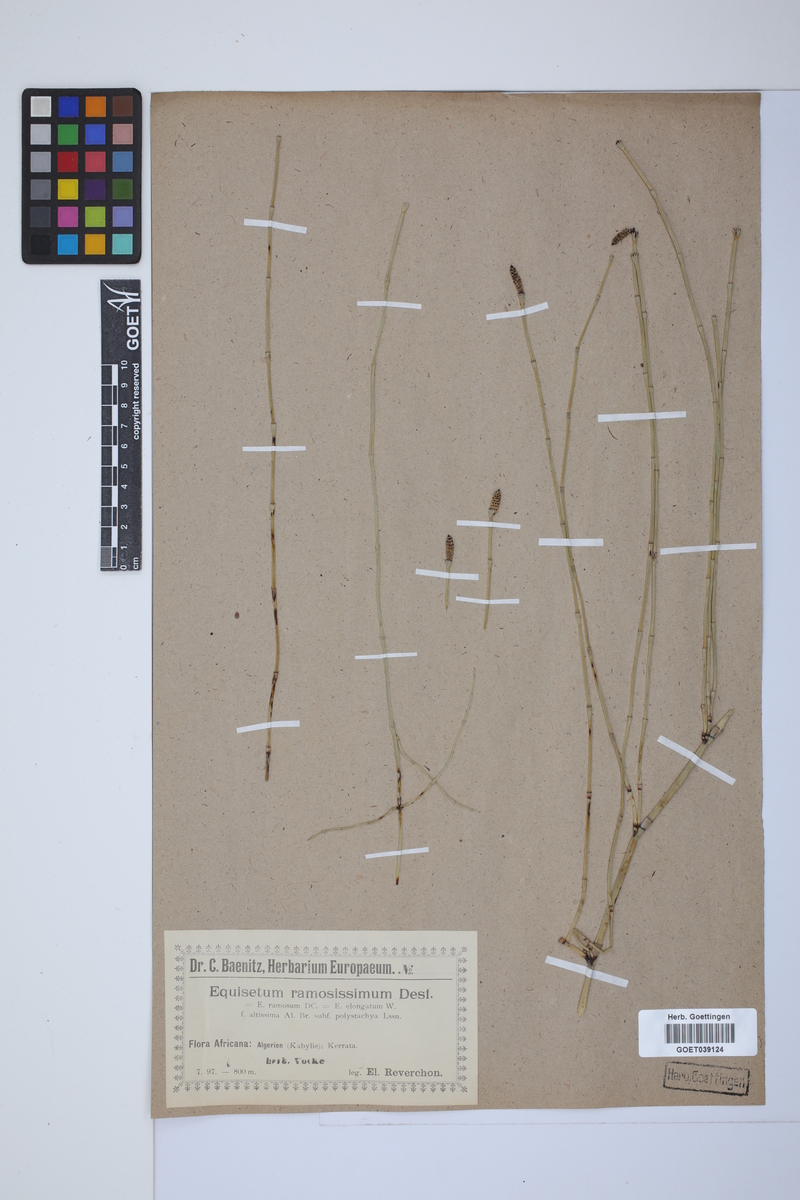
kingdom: Plantae
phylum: Tracheophyta
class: Polypodiopsida
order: Equisetales
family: Equisetaceae
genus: Equisetum
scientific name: Equisetum giganteum
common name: Giant horsetail
